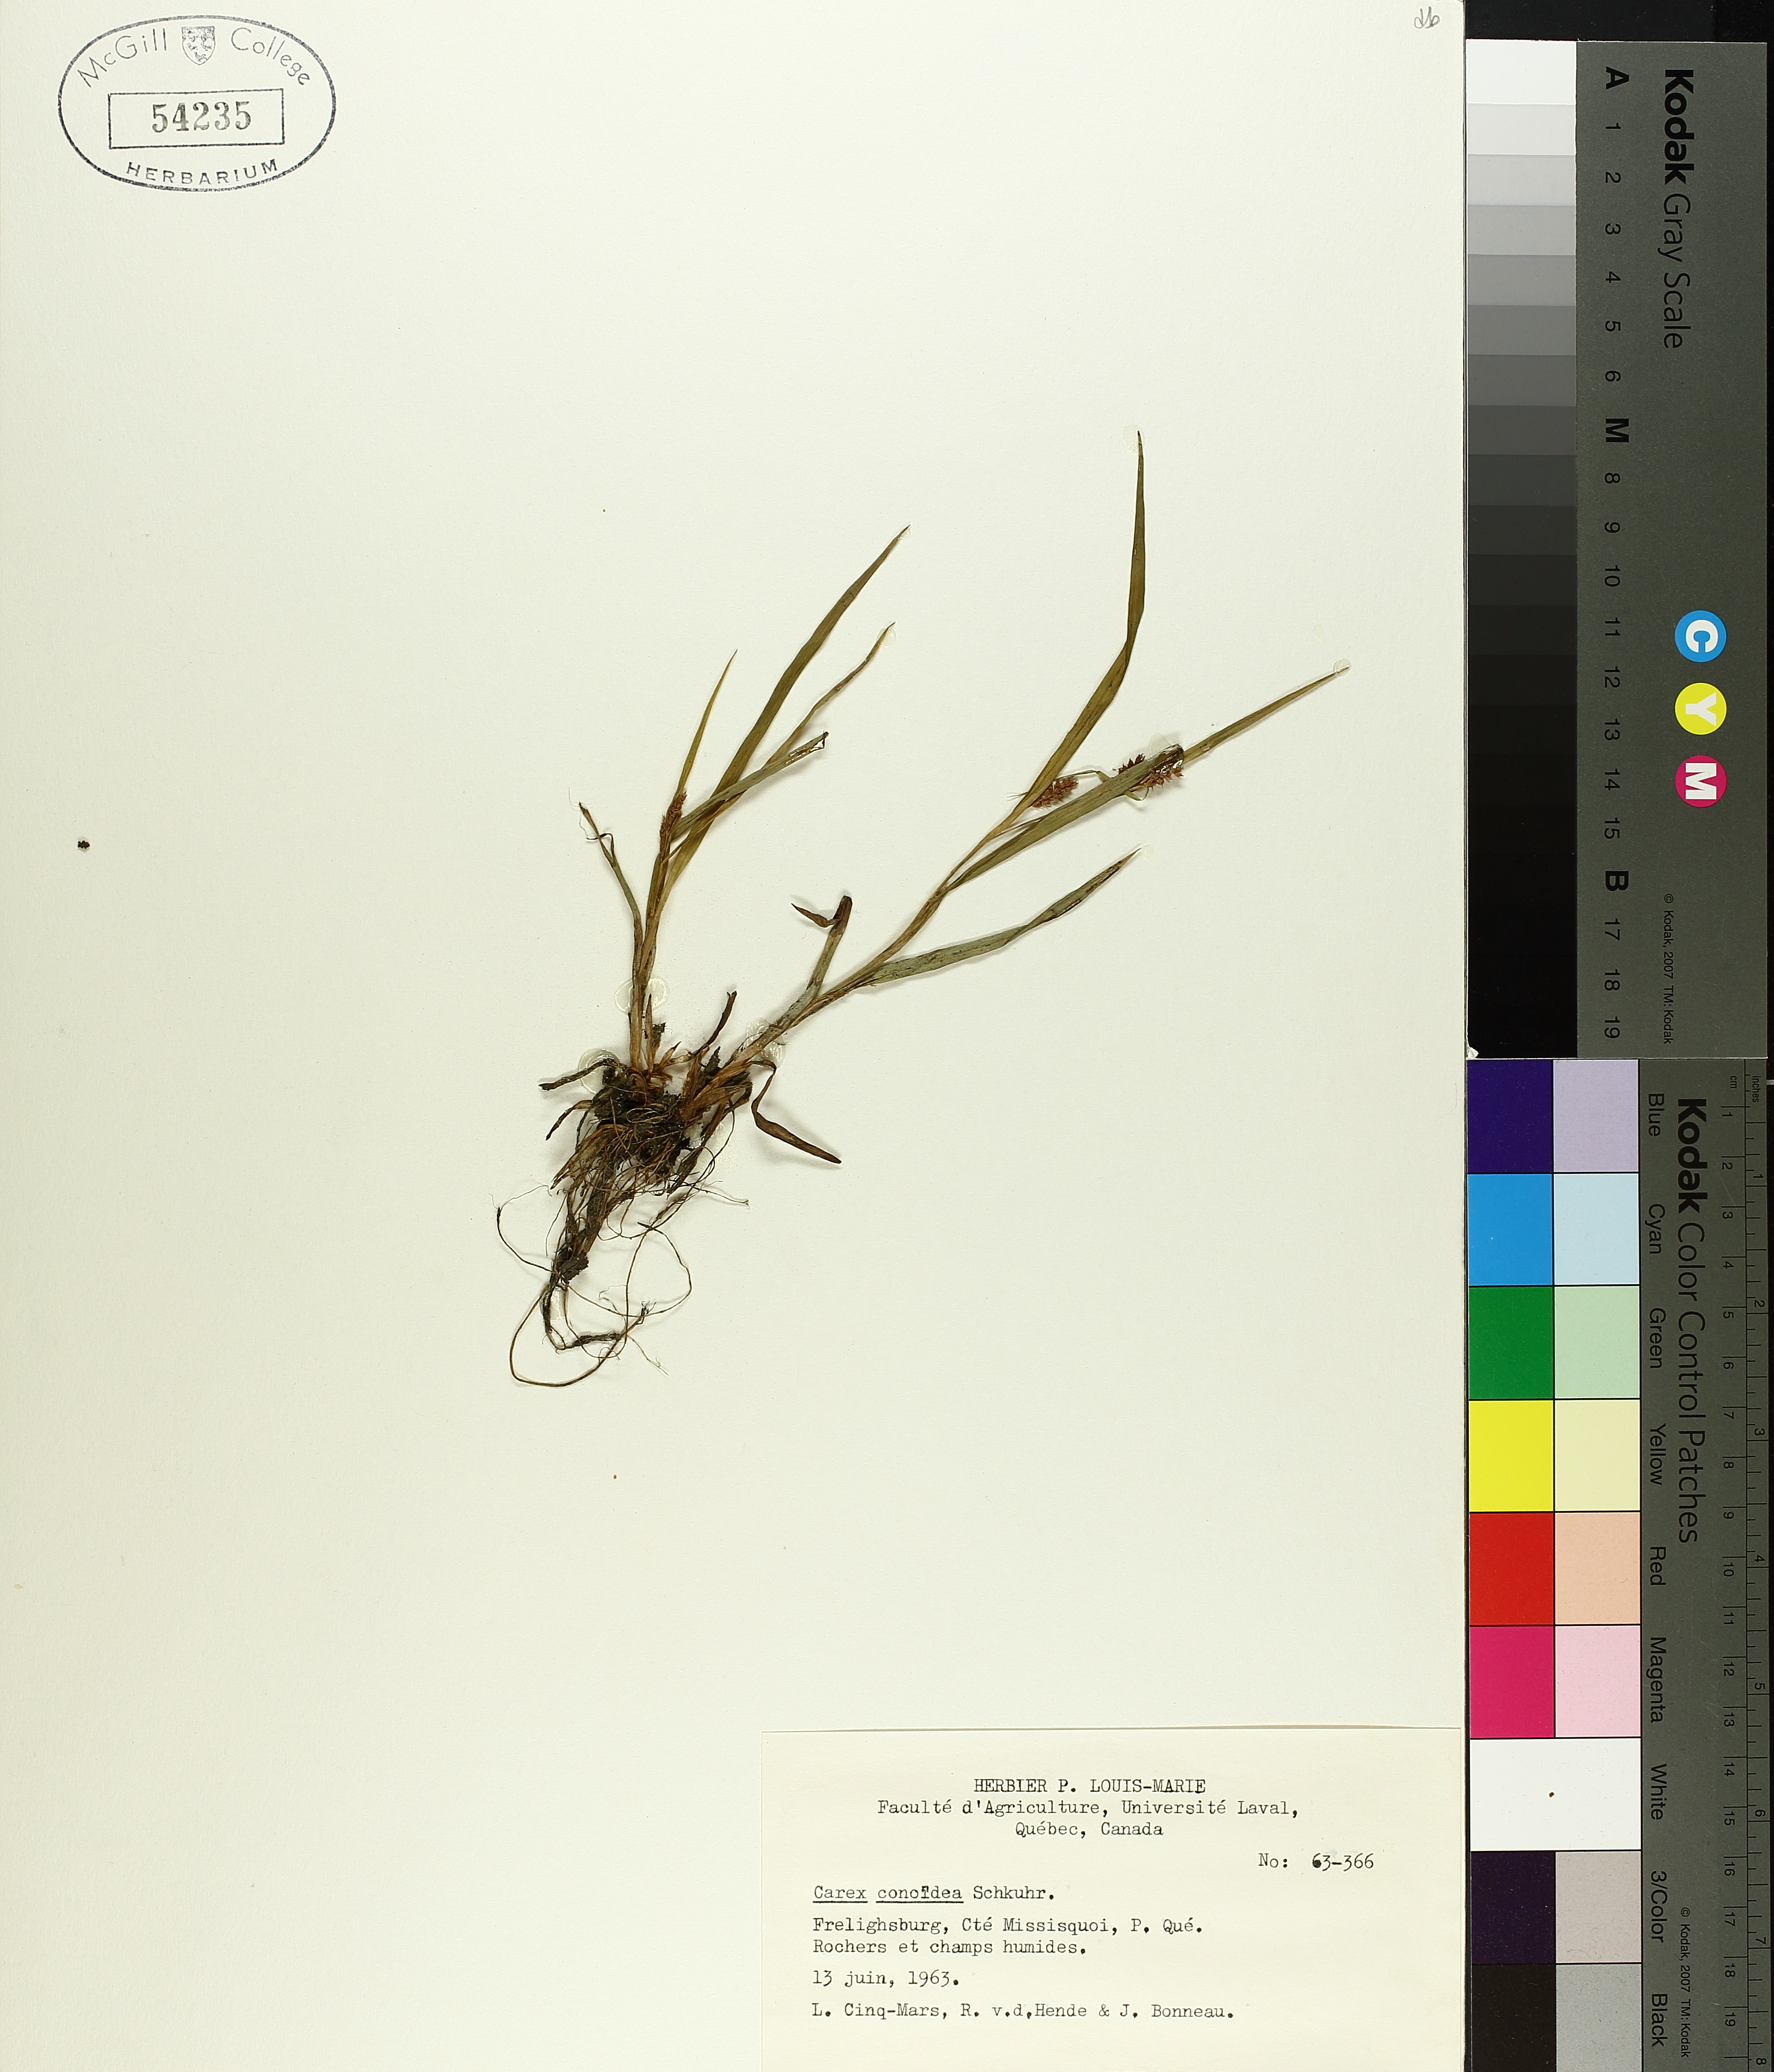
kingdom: Plantae
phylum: Tracheophyta
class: Liliopsida
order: Poales
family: Cyperaceae
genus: Carex
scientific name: Carex conoidea
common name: Cone shaped sedge
